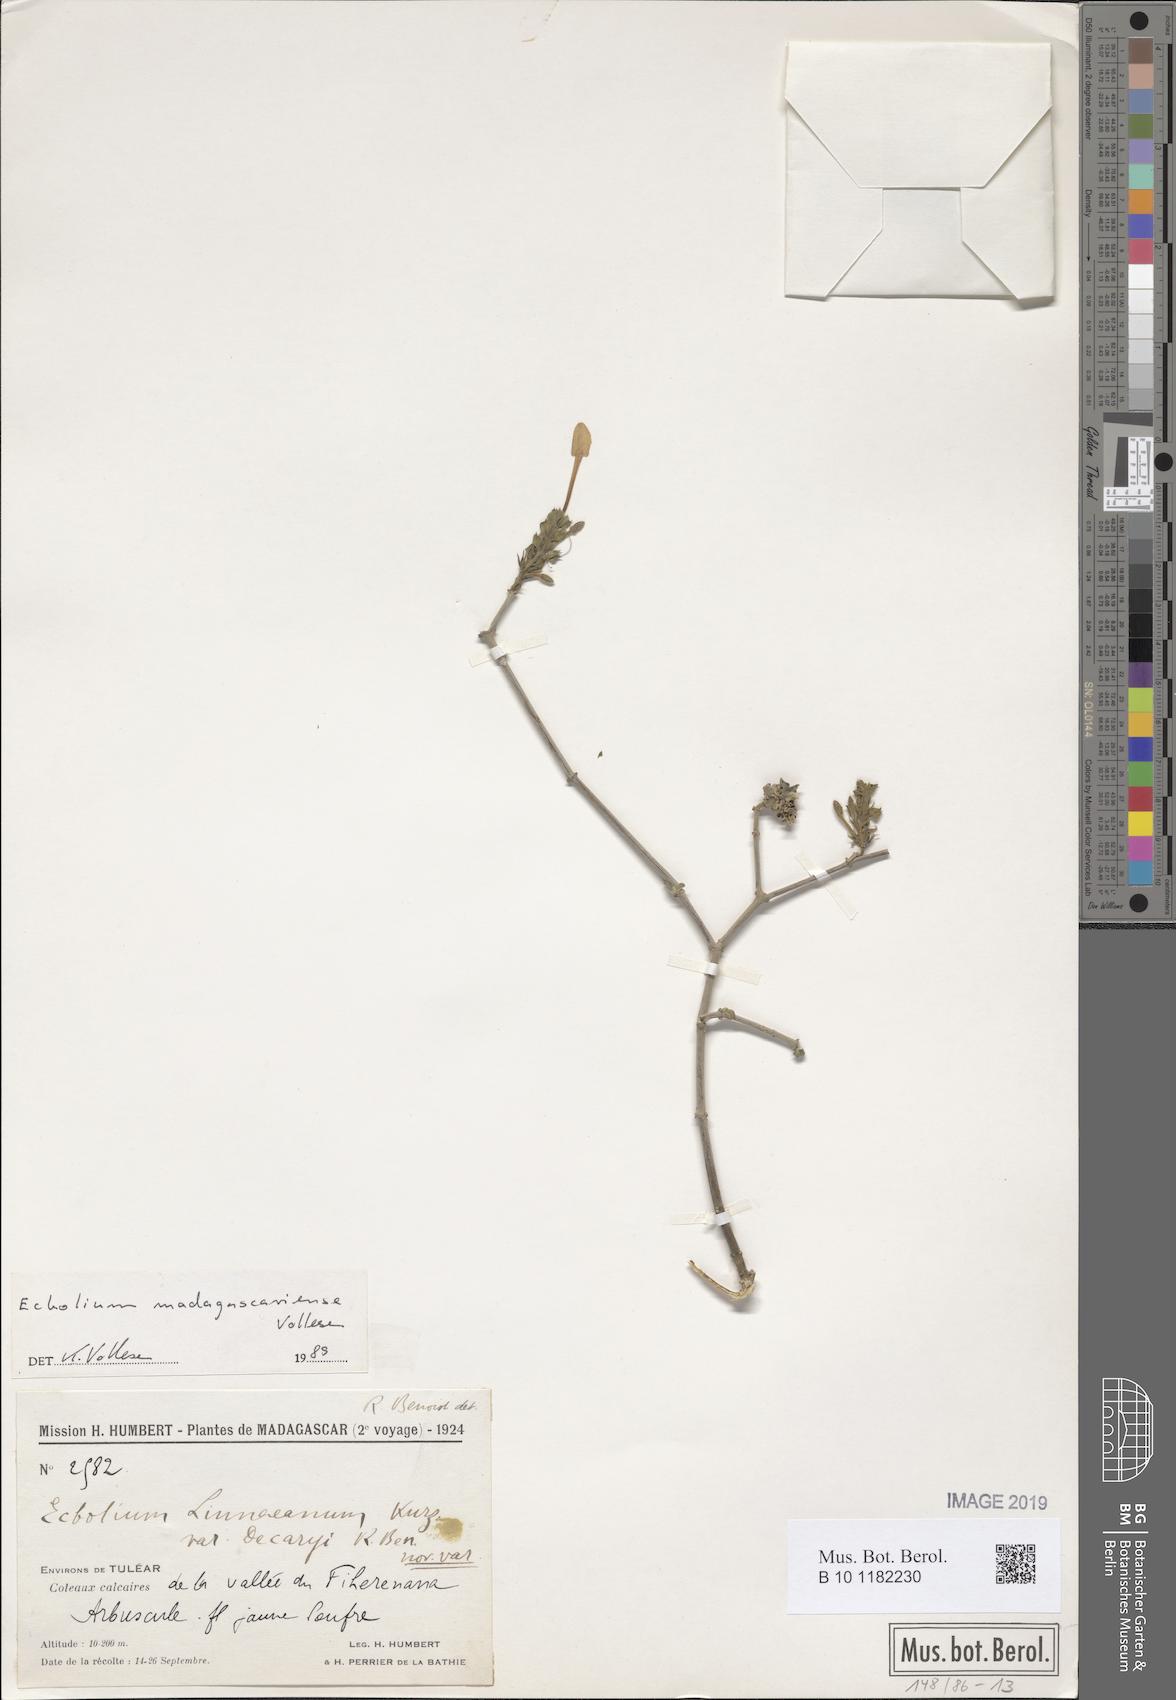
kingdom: Plantae
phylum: Tracheophyta
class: Magnoliopsida
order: Lamiales
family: Acanthaceae
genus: Ecbolium
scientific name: Ecbolium madagascariense
